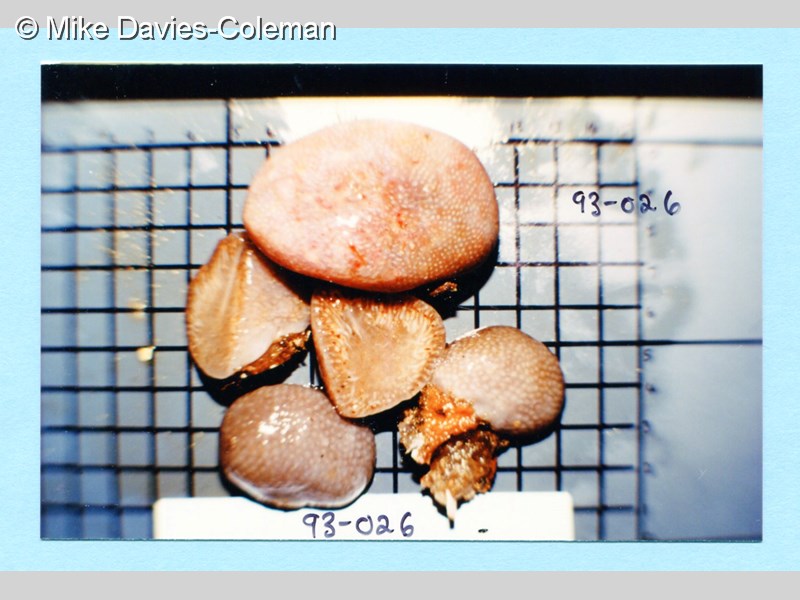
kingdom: Animalia
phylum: Chordata
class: Ascidiacea
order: Aplousobranchia
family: Pseudodistomidae
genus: Pseudodistoma
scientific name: Pseudodistoma
